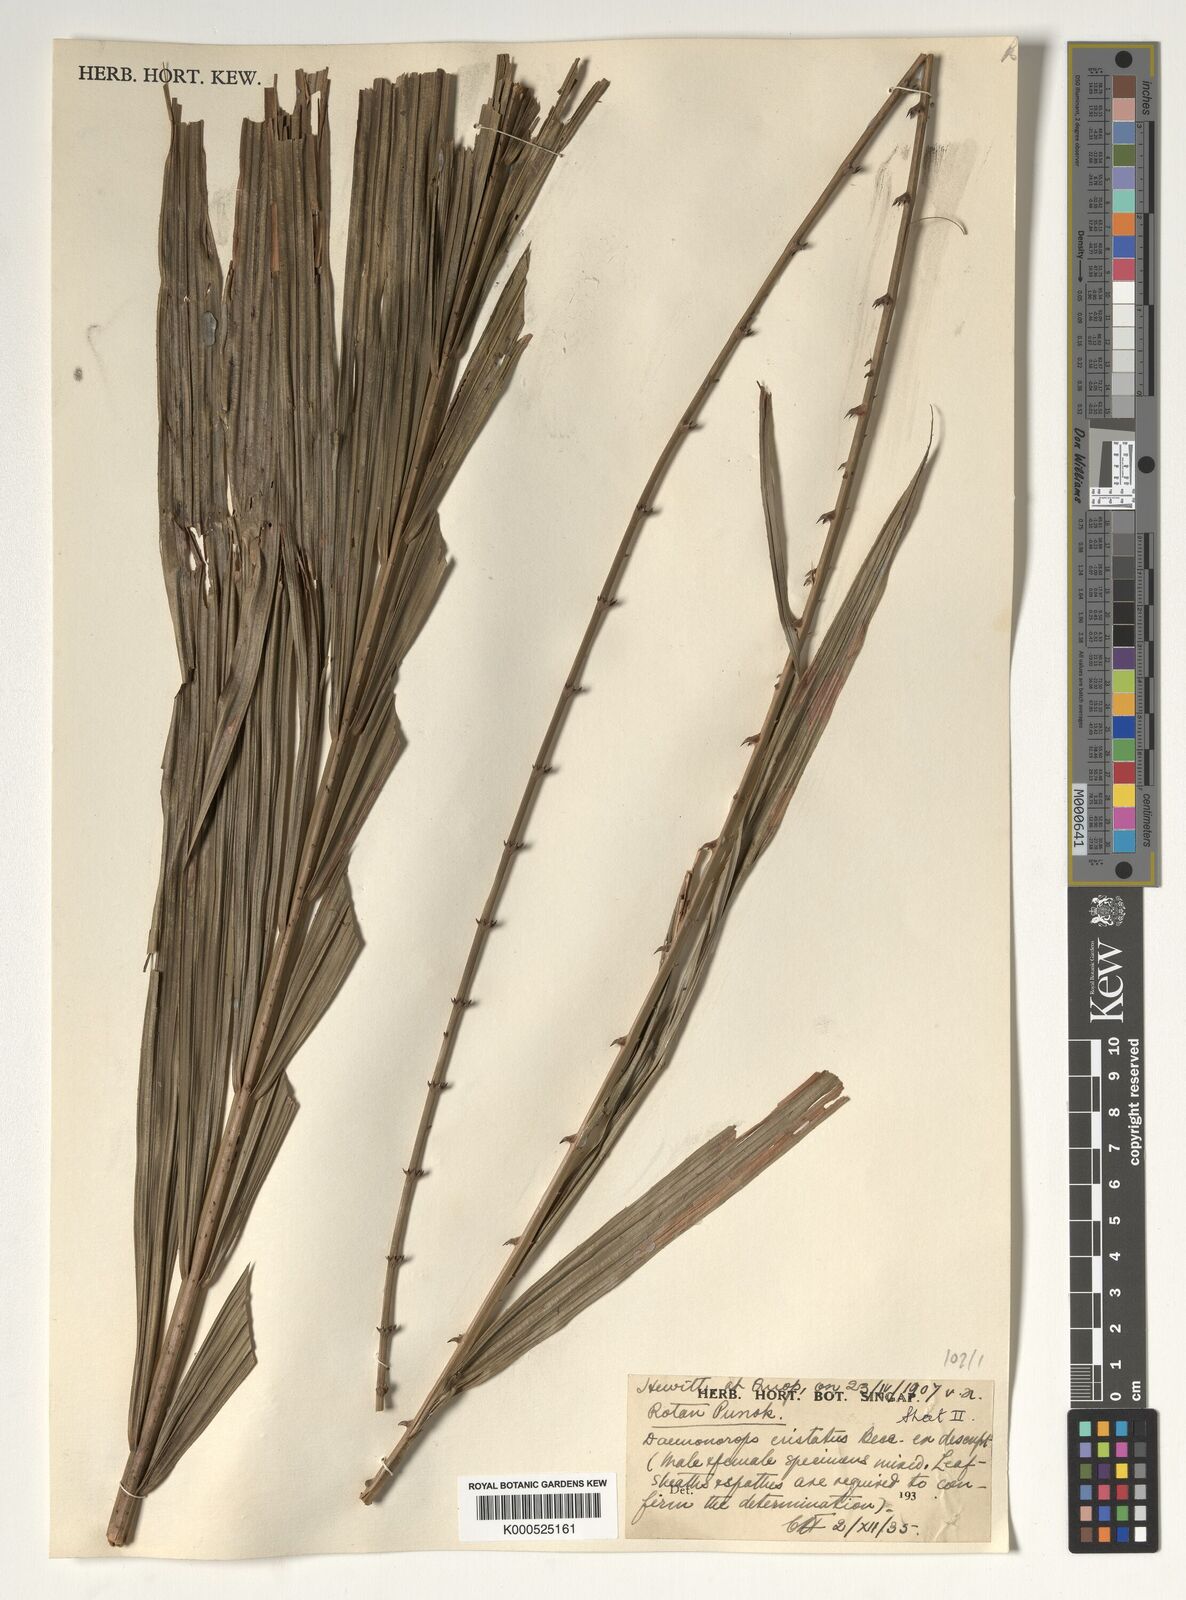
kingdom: Plantae
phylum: Tracheophyta
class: Liliopsida
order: Arecales
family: Arecaceae
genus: Calamus
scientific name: Calamus cristatus
